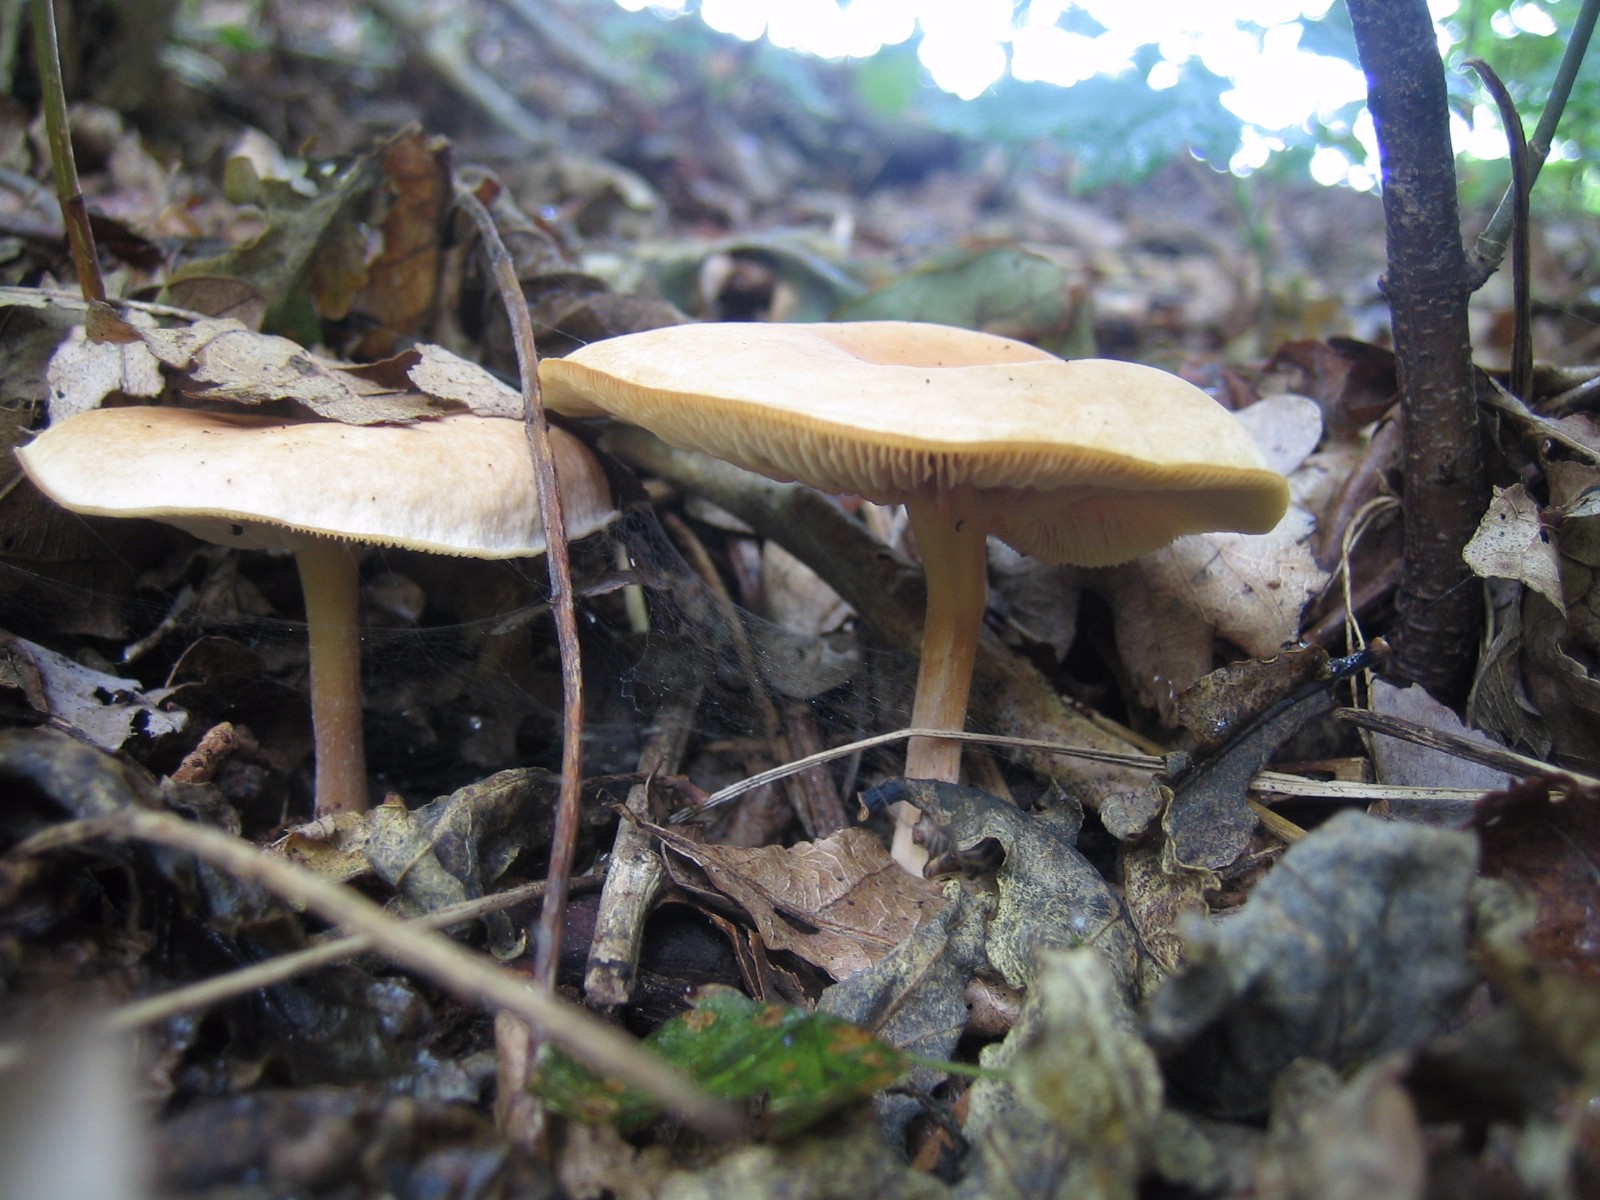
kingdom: Fungi
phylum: Basidiomycota
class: Agaricomycetes
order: Agaricales
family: Omphalotaceae
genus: Gymnopus
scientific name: Gymnopus
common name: fladhat
